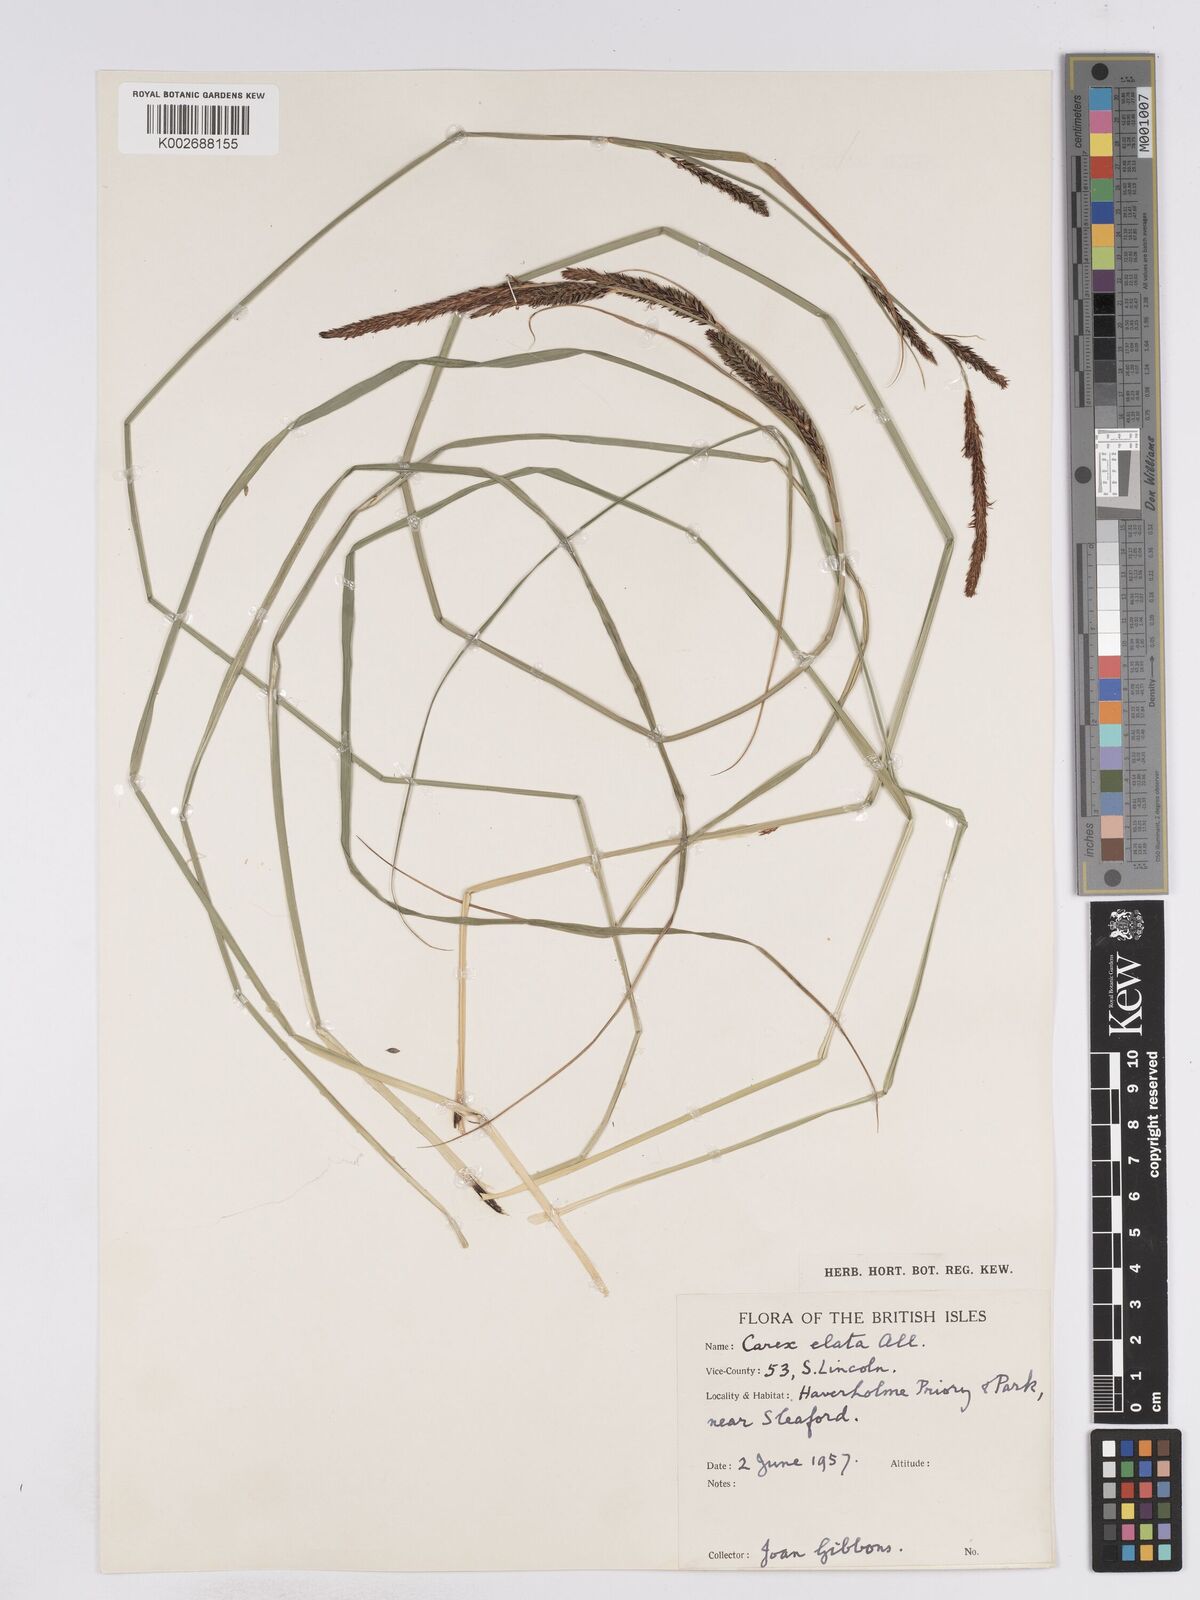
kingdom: Plantae
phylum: Tracheophyta
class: Liliopsida
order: Poales
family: Cyperaceae
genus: Carex
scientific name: Carex elata
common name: Tufted sedge
